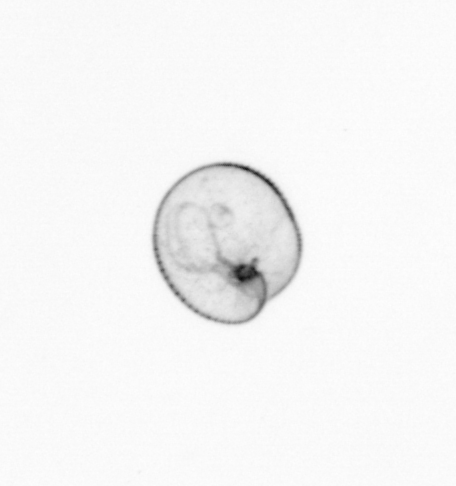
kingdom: Chromista
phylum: Myzozoa
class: Dinophyceae
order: Noctilucales
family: Noctilucaceae
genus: Noctiluca
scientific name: Noctiluca scintillans
